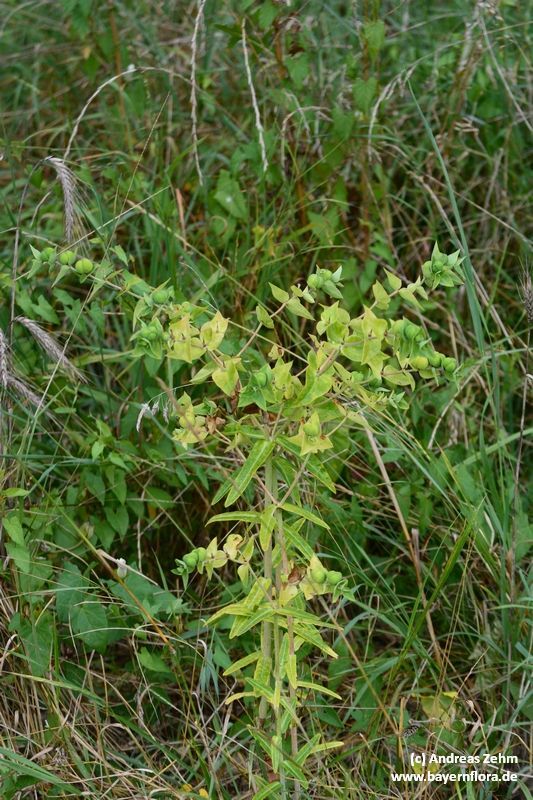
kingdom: Plantae
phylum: Tracheophyta
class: Magnoliopsida
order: Malpighiales
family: Euphorbiaceae
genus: Euphorbia
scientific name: Euphorbia lathyris
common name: Caper spurge
